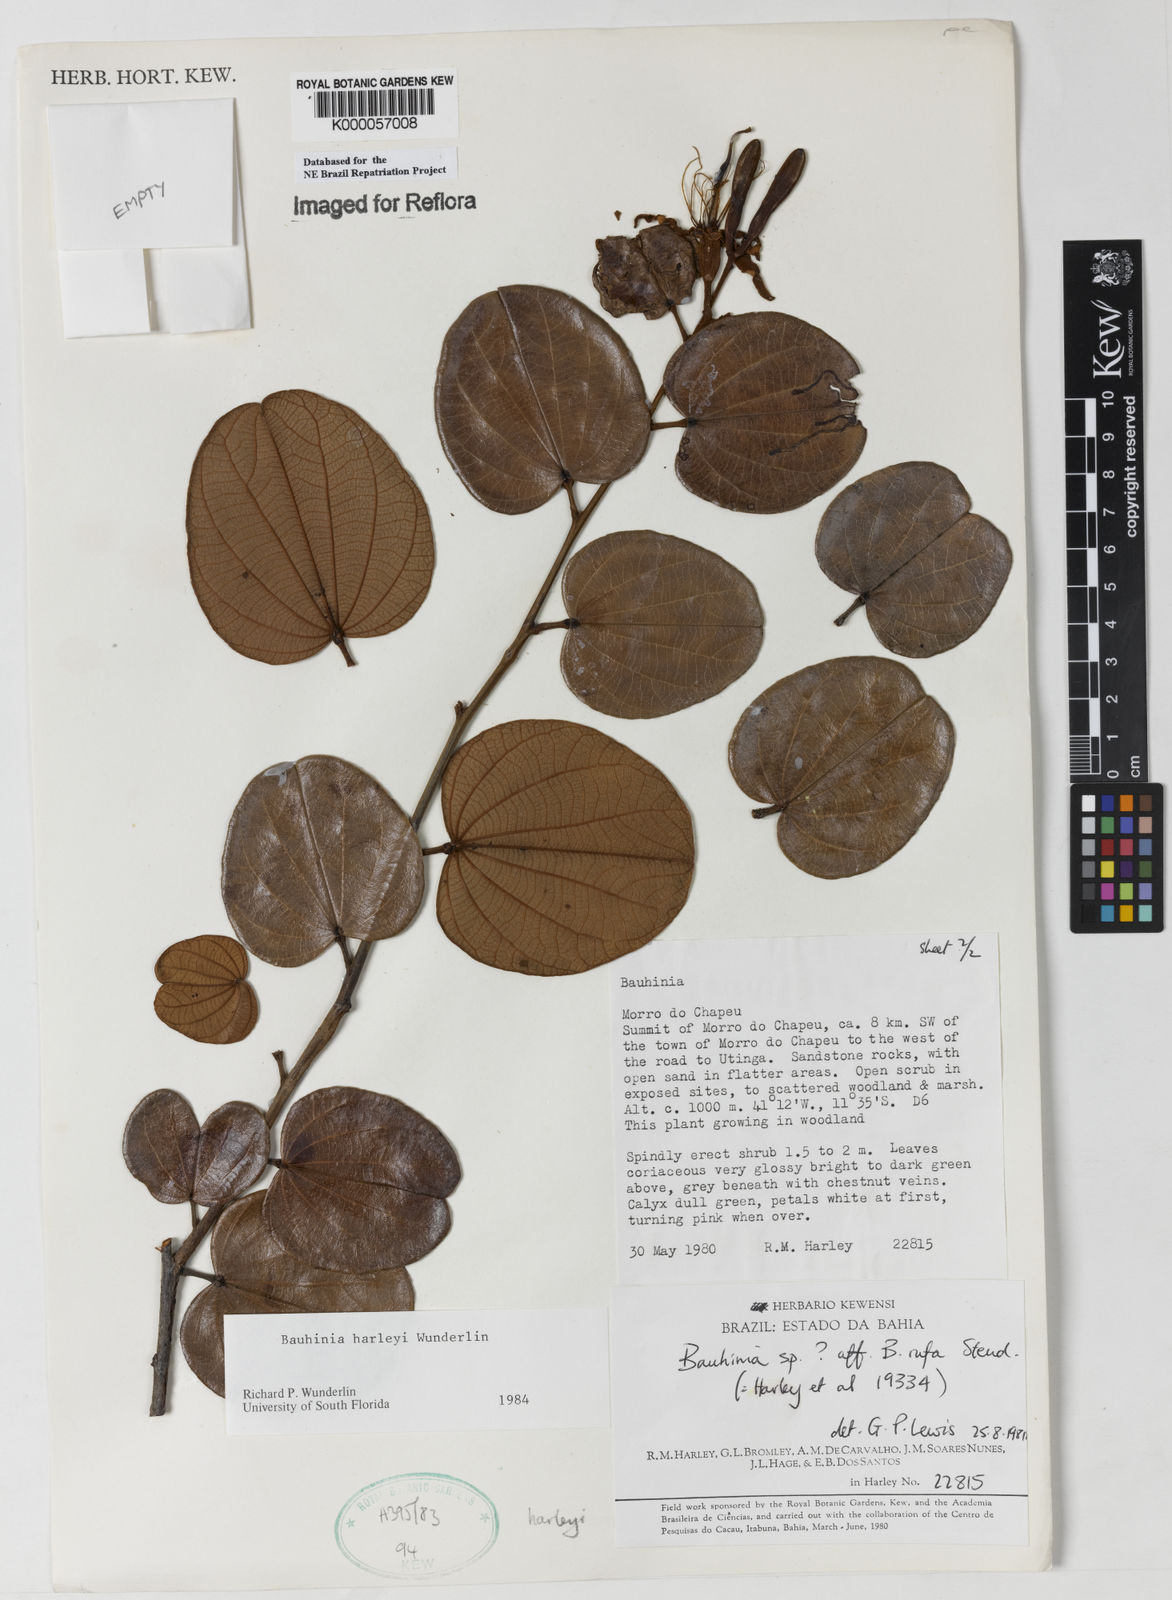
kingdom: Plantae
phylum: Tracheophyta
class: Magnoliopsida
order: Fabales
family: Fabaceae
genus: Bauhinia
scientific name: Bauhinia
